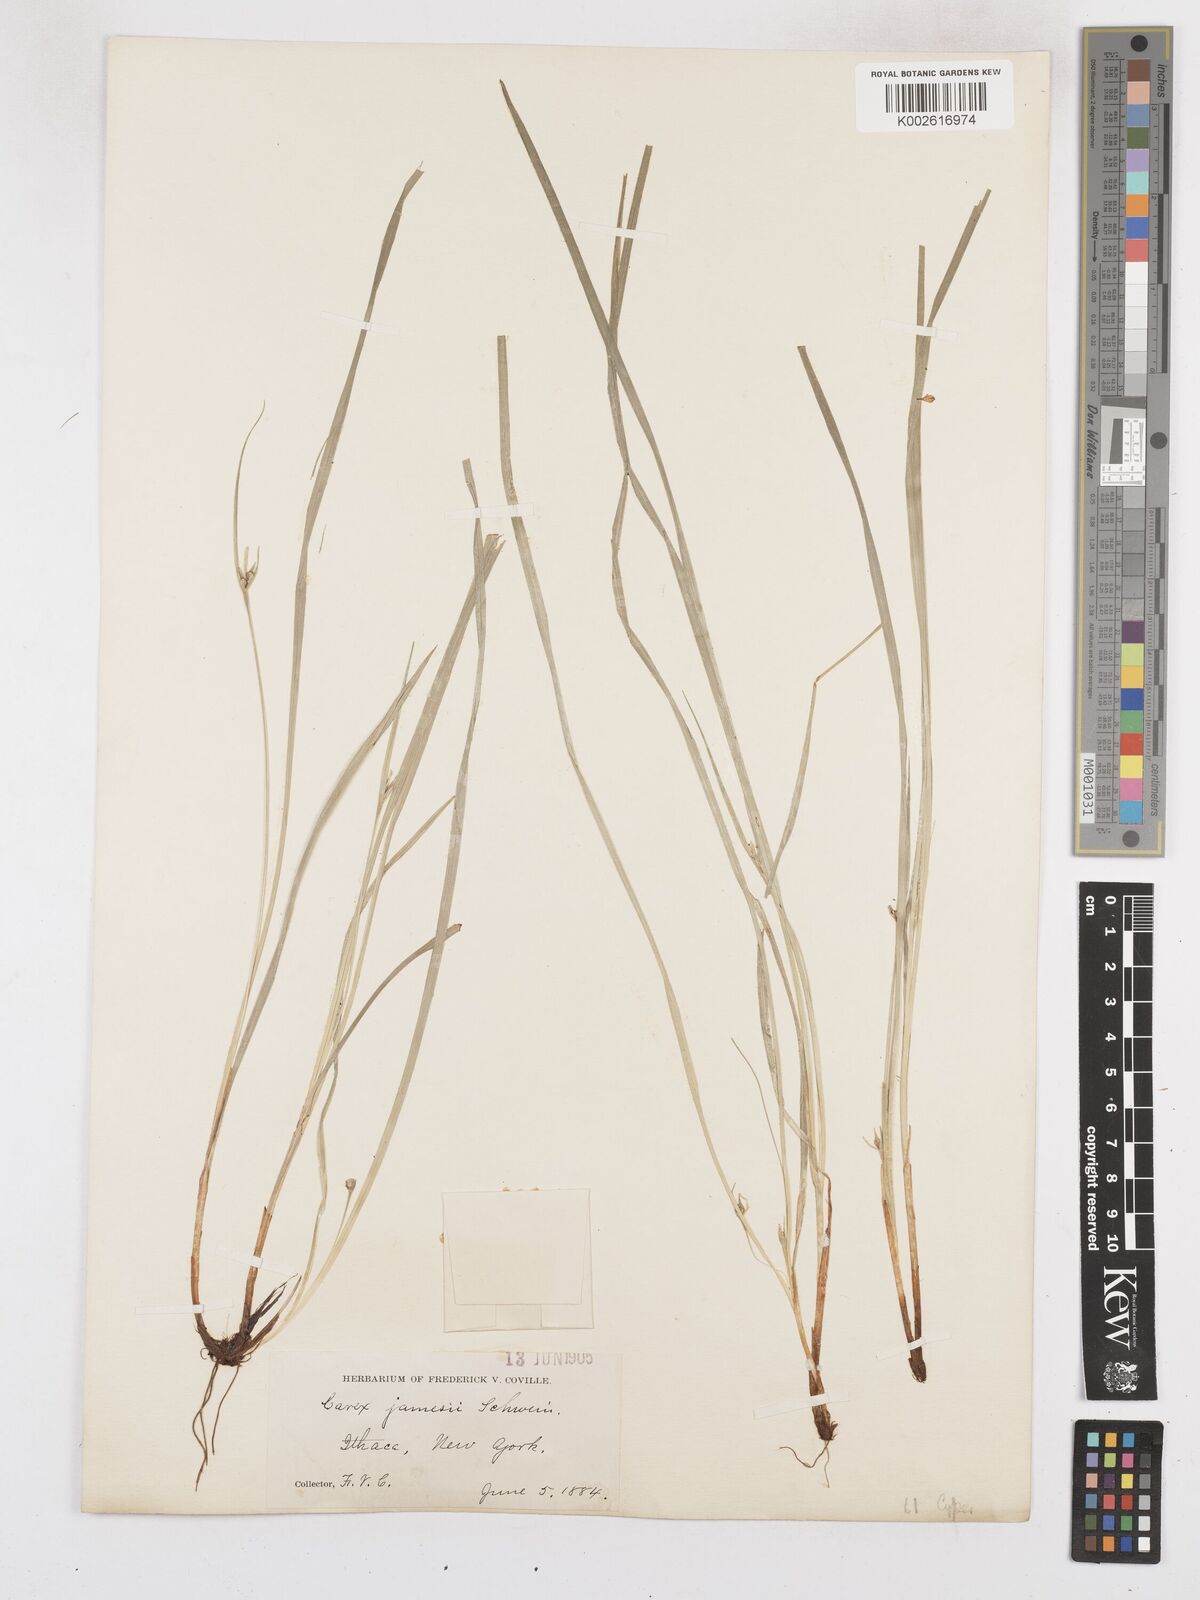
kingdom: Plantae
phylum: Tracheophyta
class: Liliopsida
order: Poales
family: Cyperaceae
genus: Carex
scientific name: Carex jamesii
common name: Grass sedge
